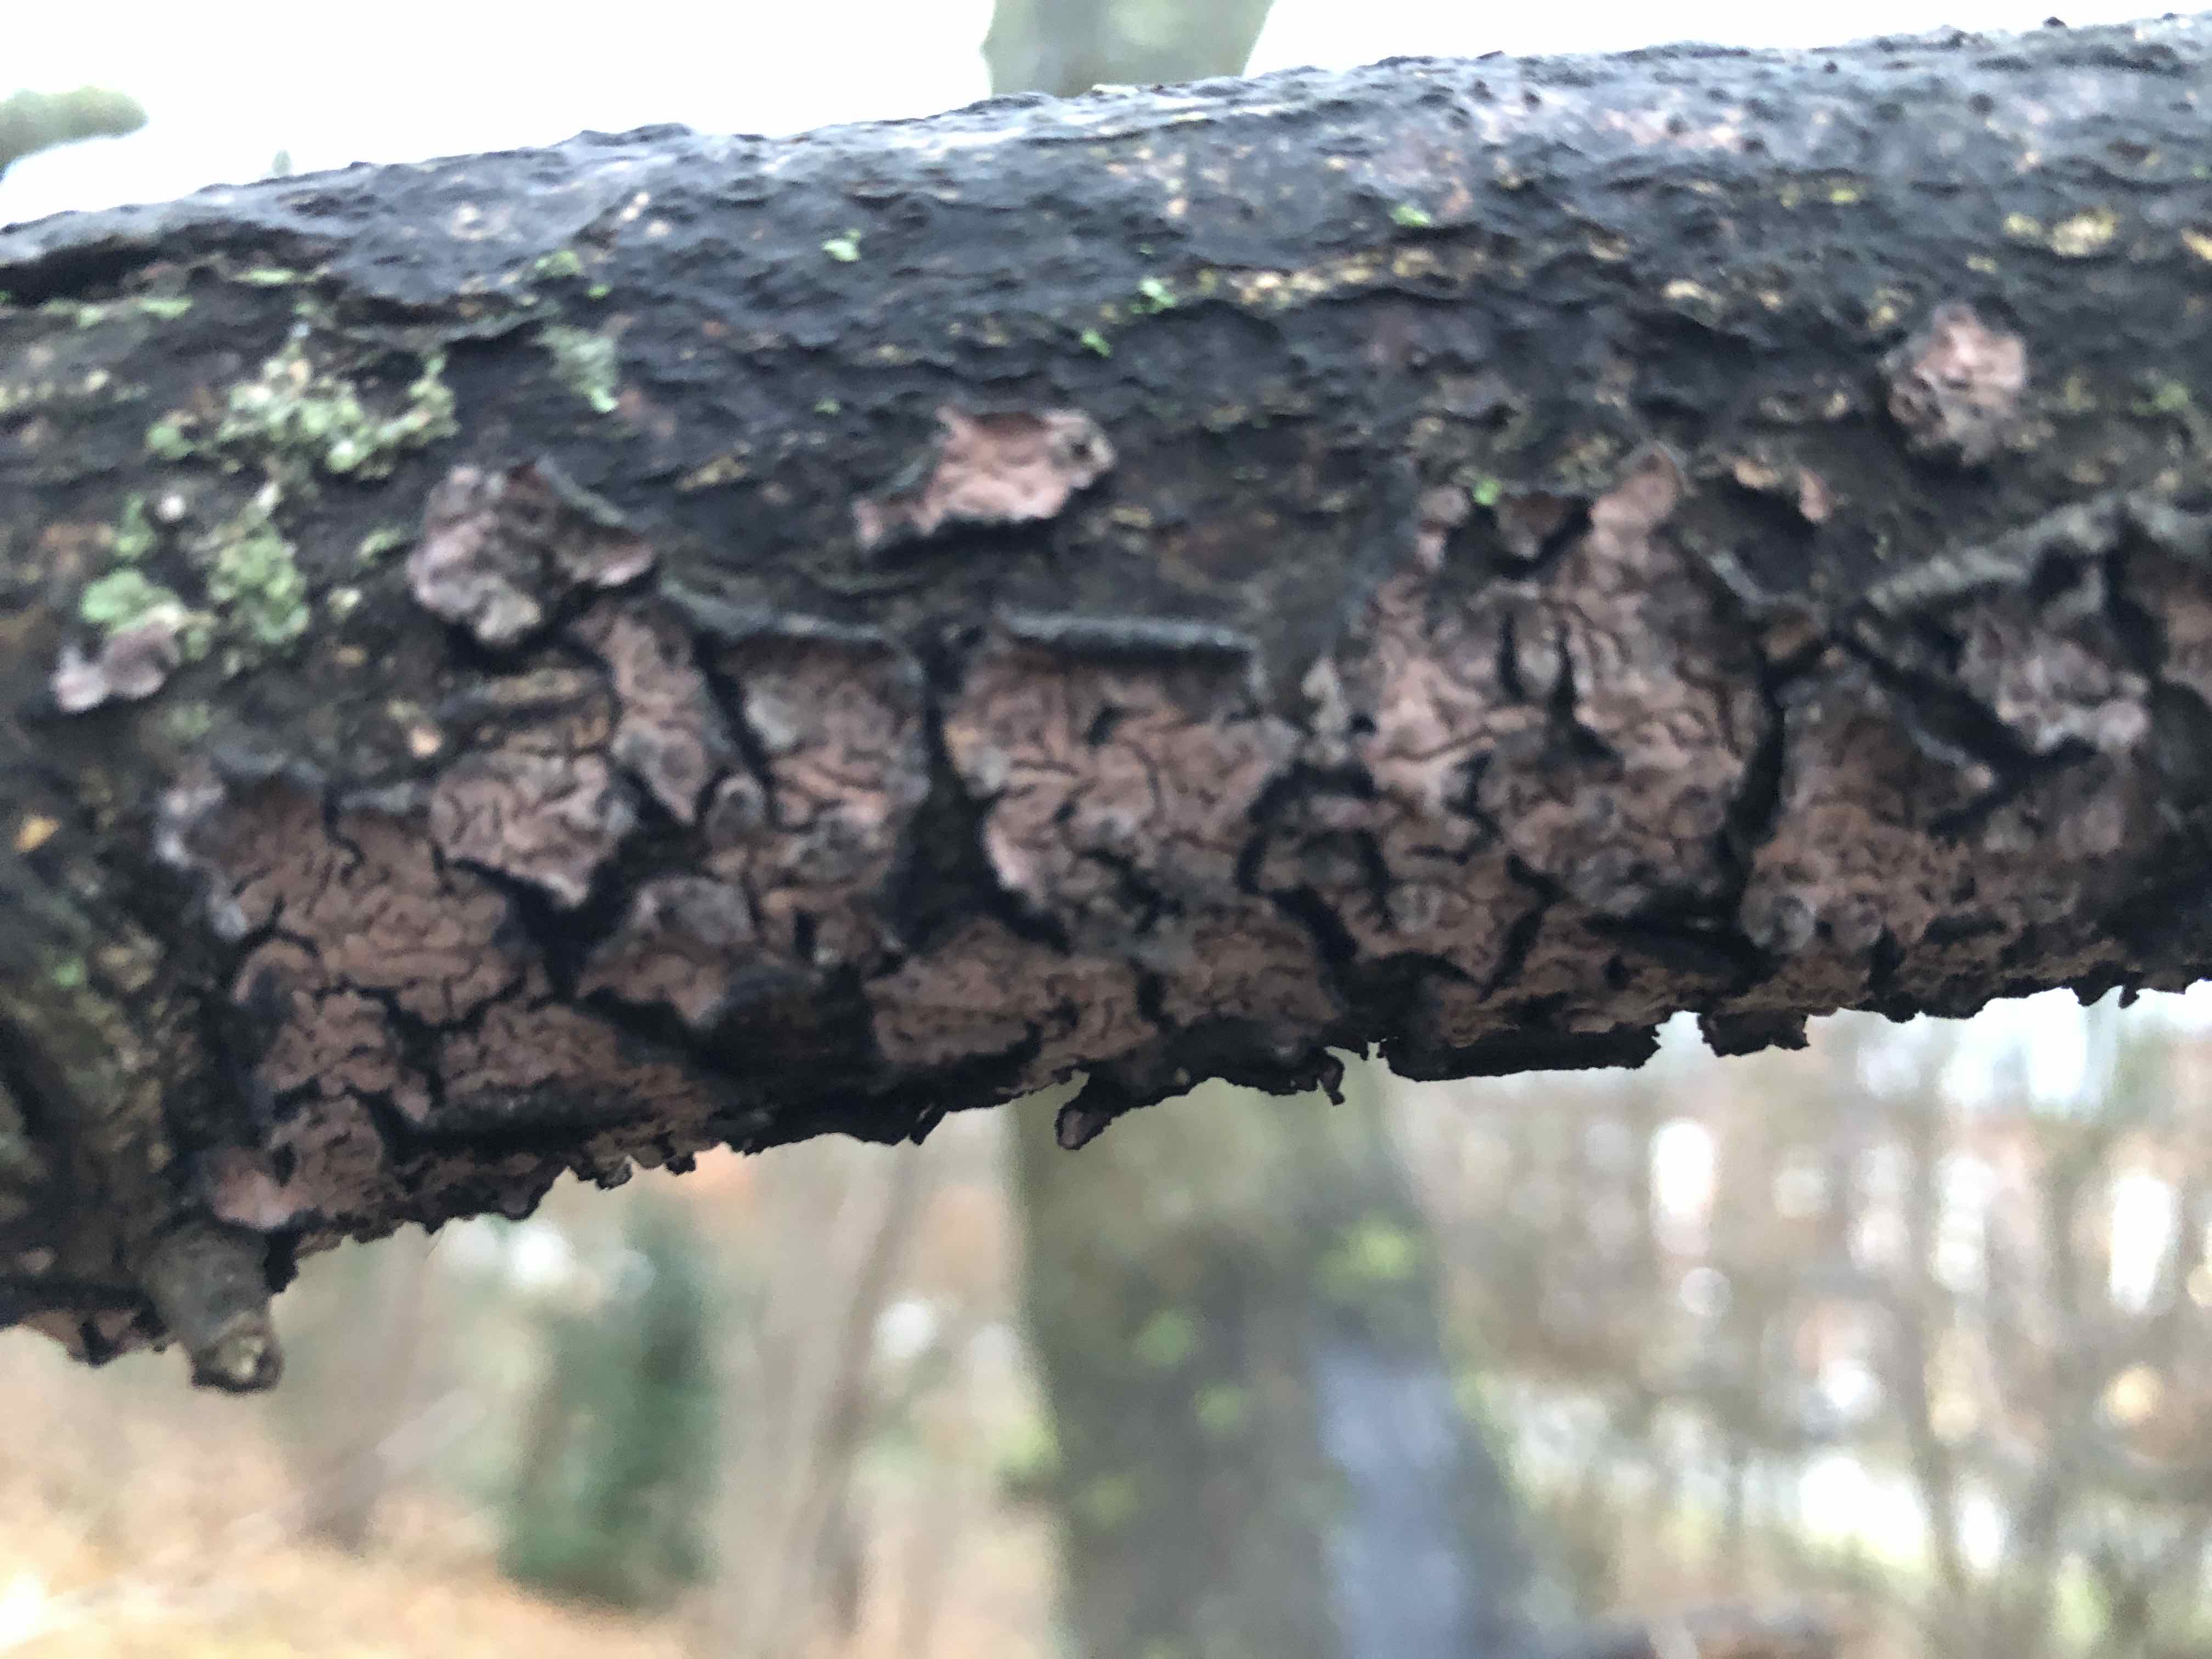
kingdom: Fungi
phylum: Basidiomycota
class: Agaricomycetes
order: Russulales
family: Peniophoraceae
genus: Peniophora
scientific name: Peniophora quercina
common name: ege-voksskind
